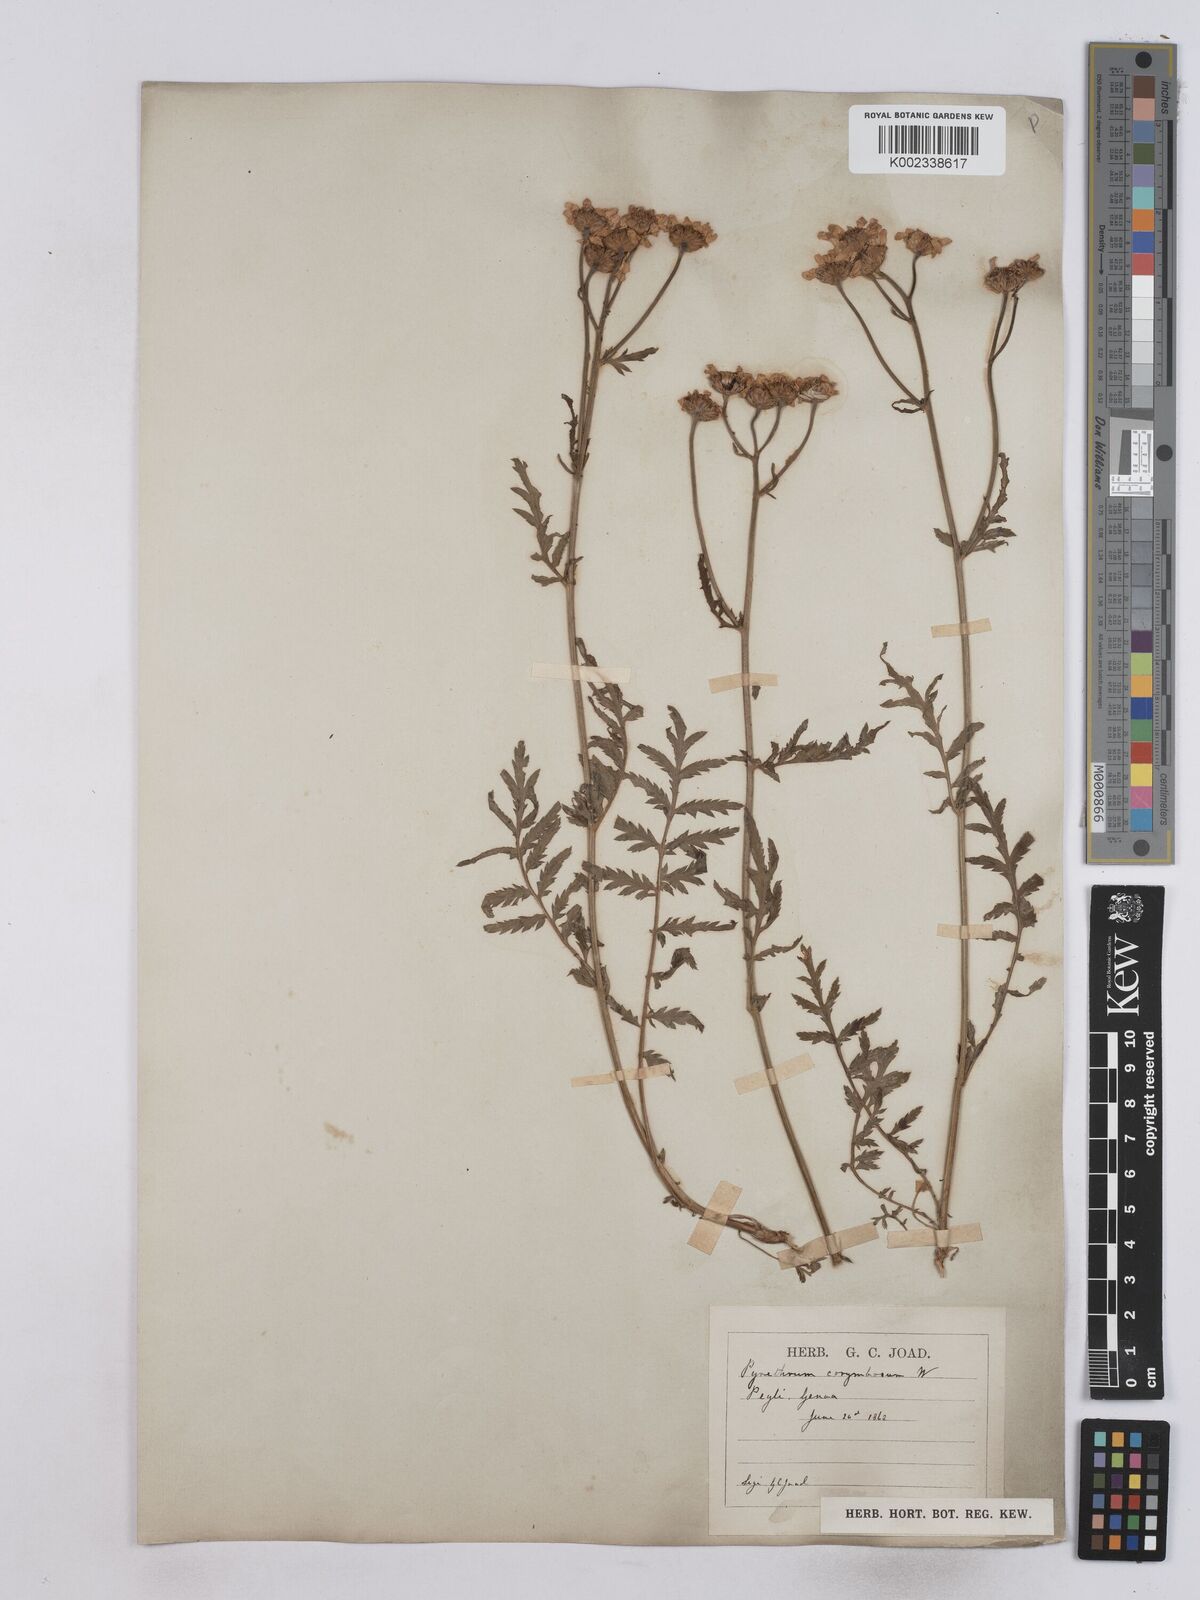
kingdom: Plantae
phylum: Tracheophyta
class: Magnoliopsida
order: Asterales
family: Asteraceae
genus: Tanacetum
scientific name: Tanacetum corymbosum
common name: Scentless feverfew
